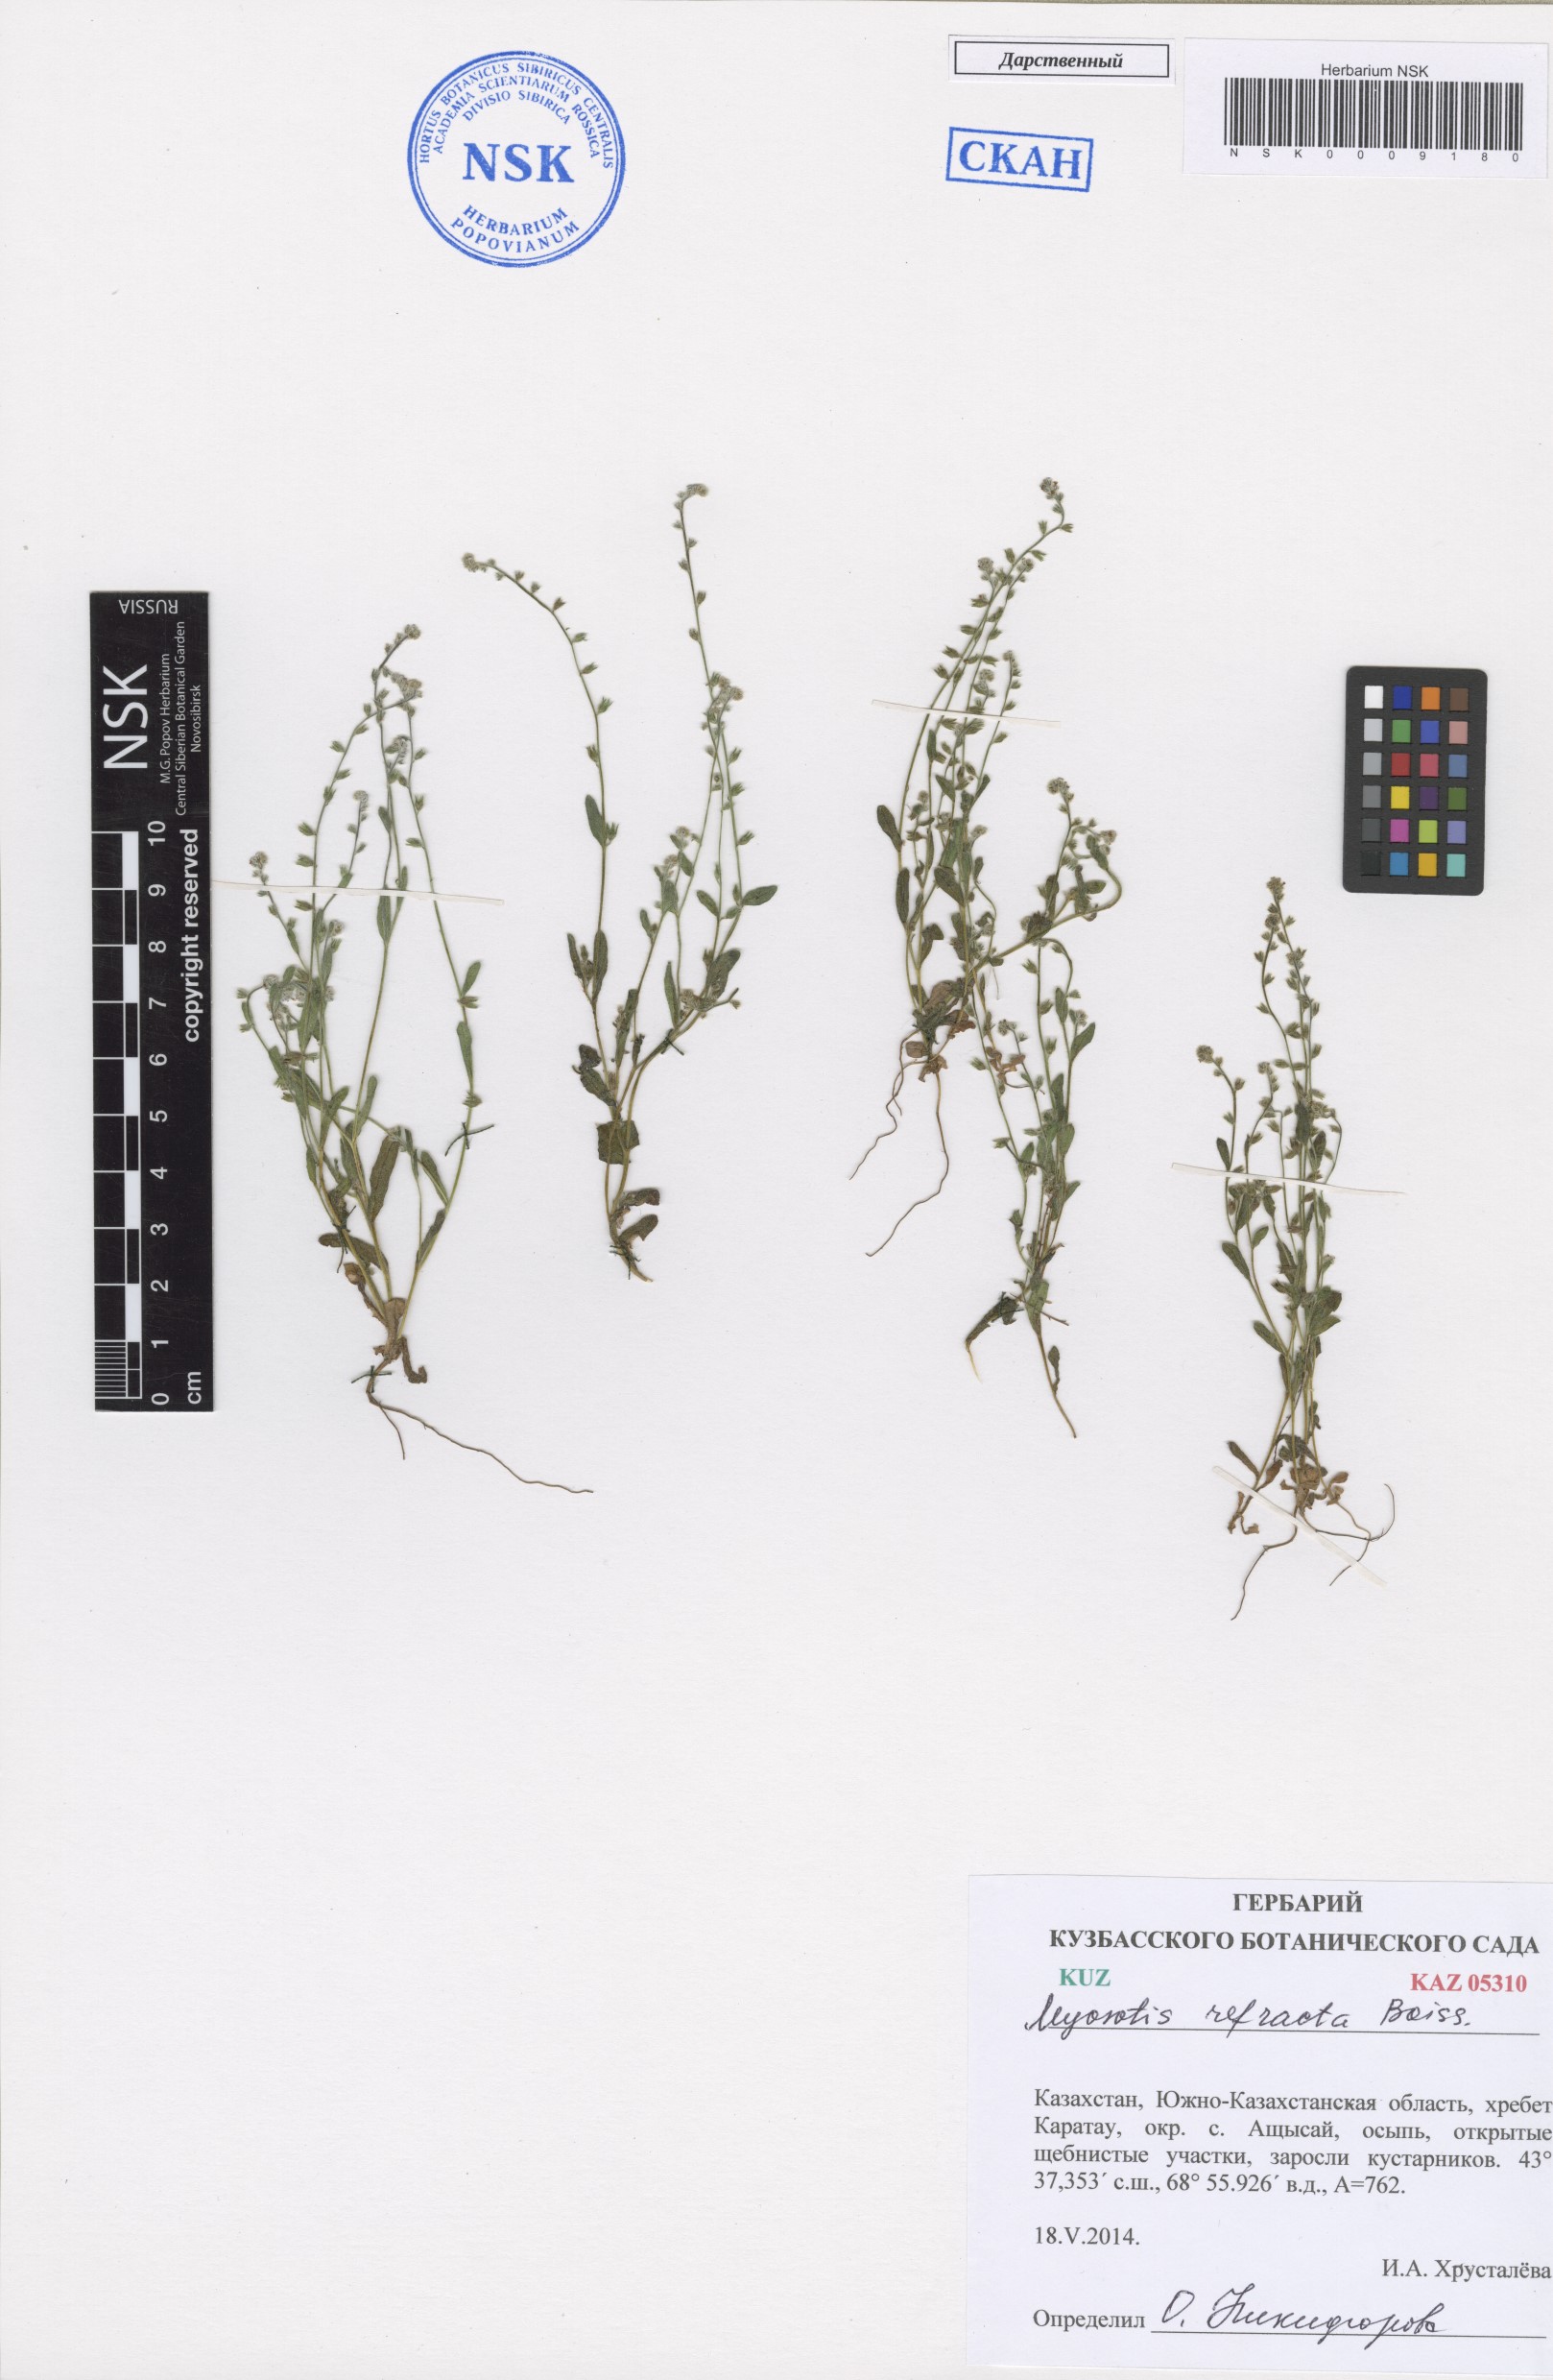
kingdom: Plantae
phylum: Tracheophyta
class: Magnoliopsida
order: Boraginales
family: Boraginaceae
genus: Myosotis
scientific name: Myosotis refracta
